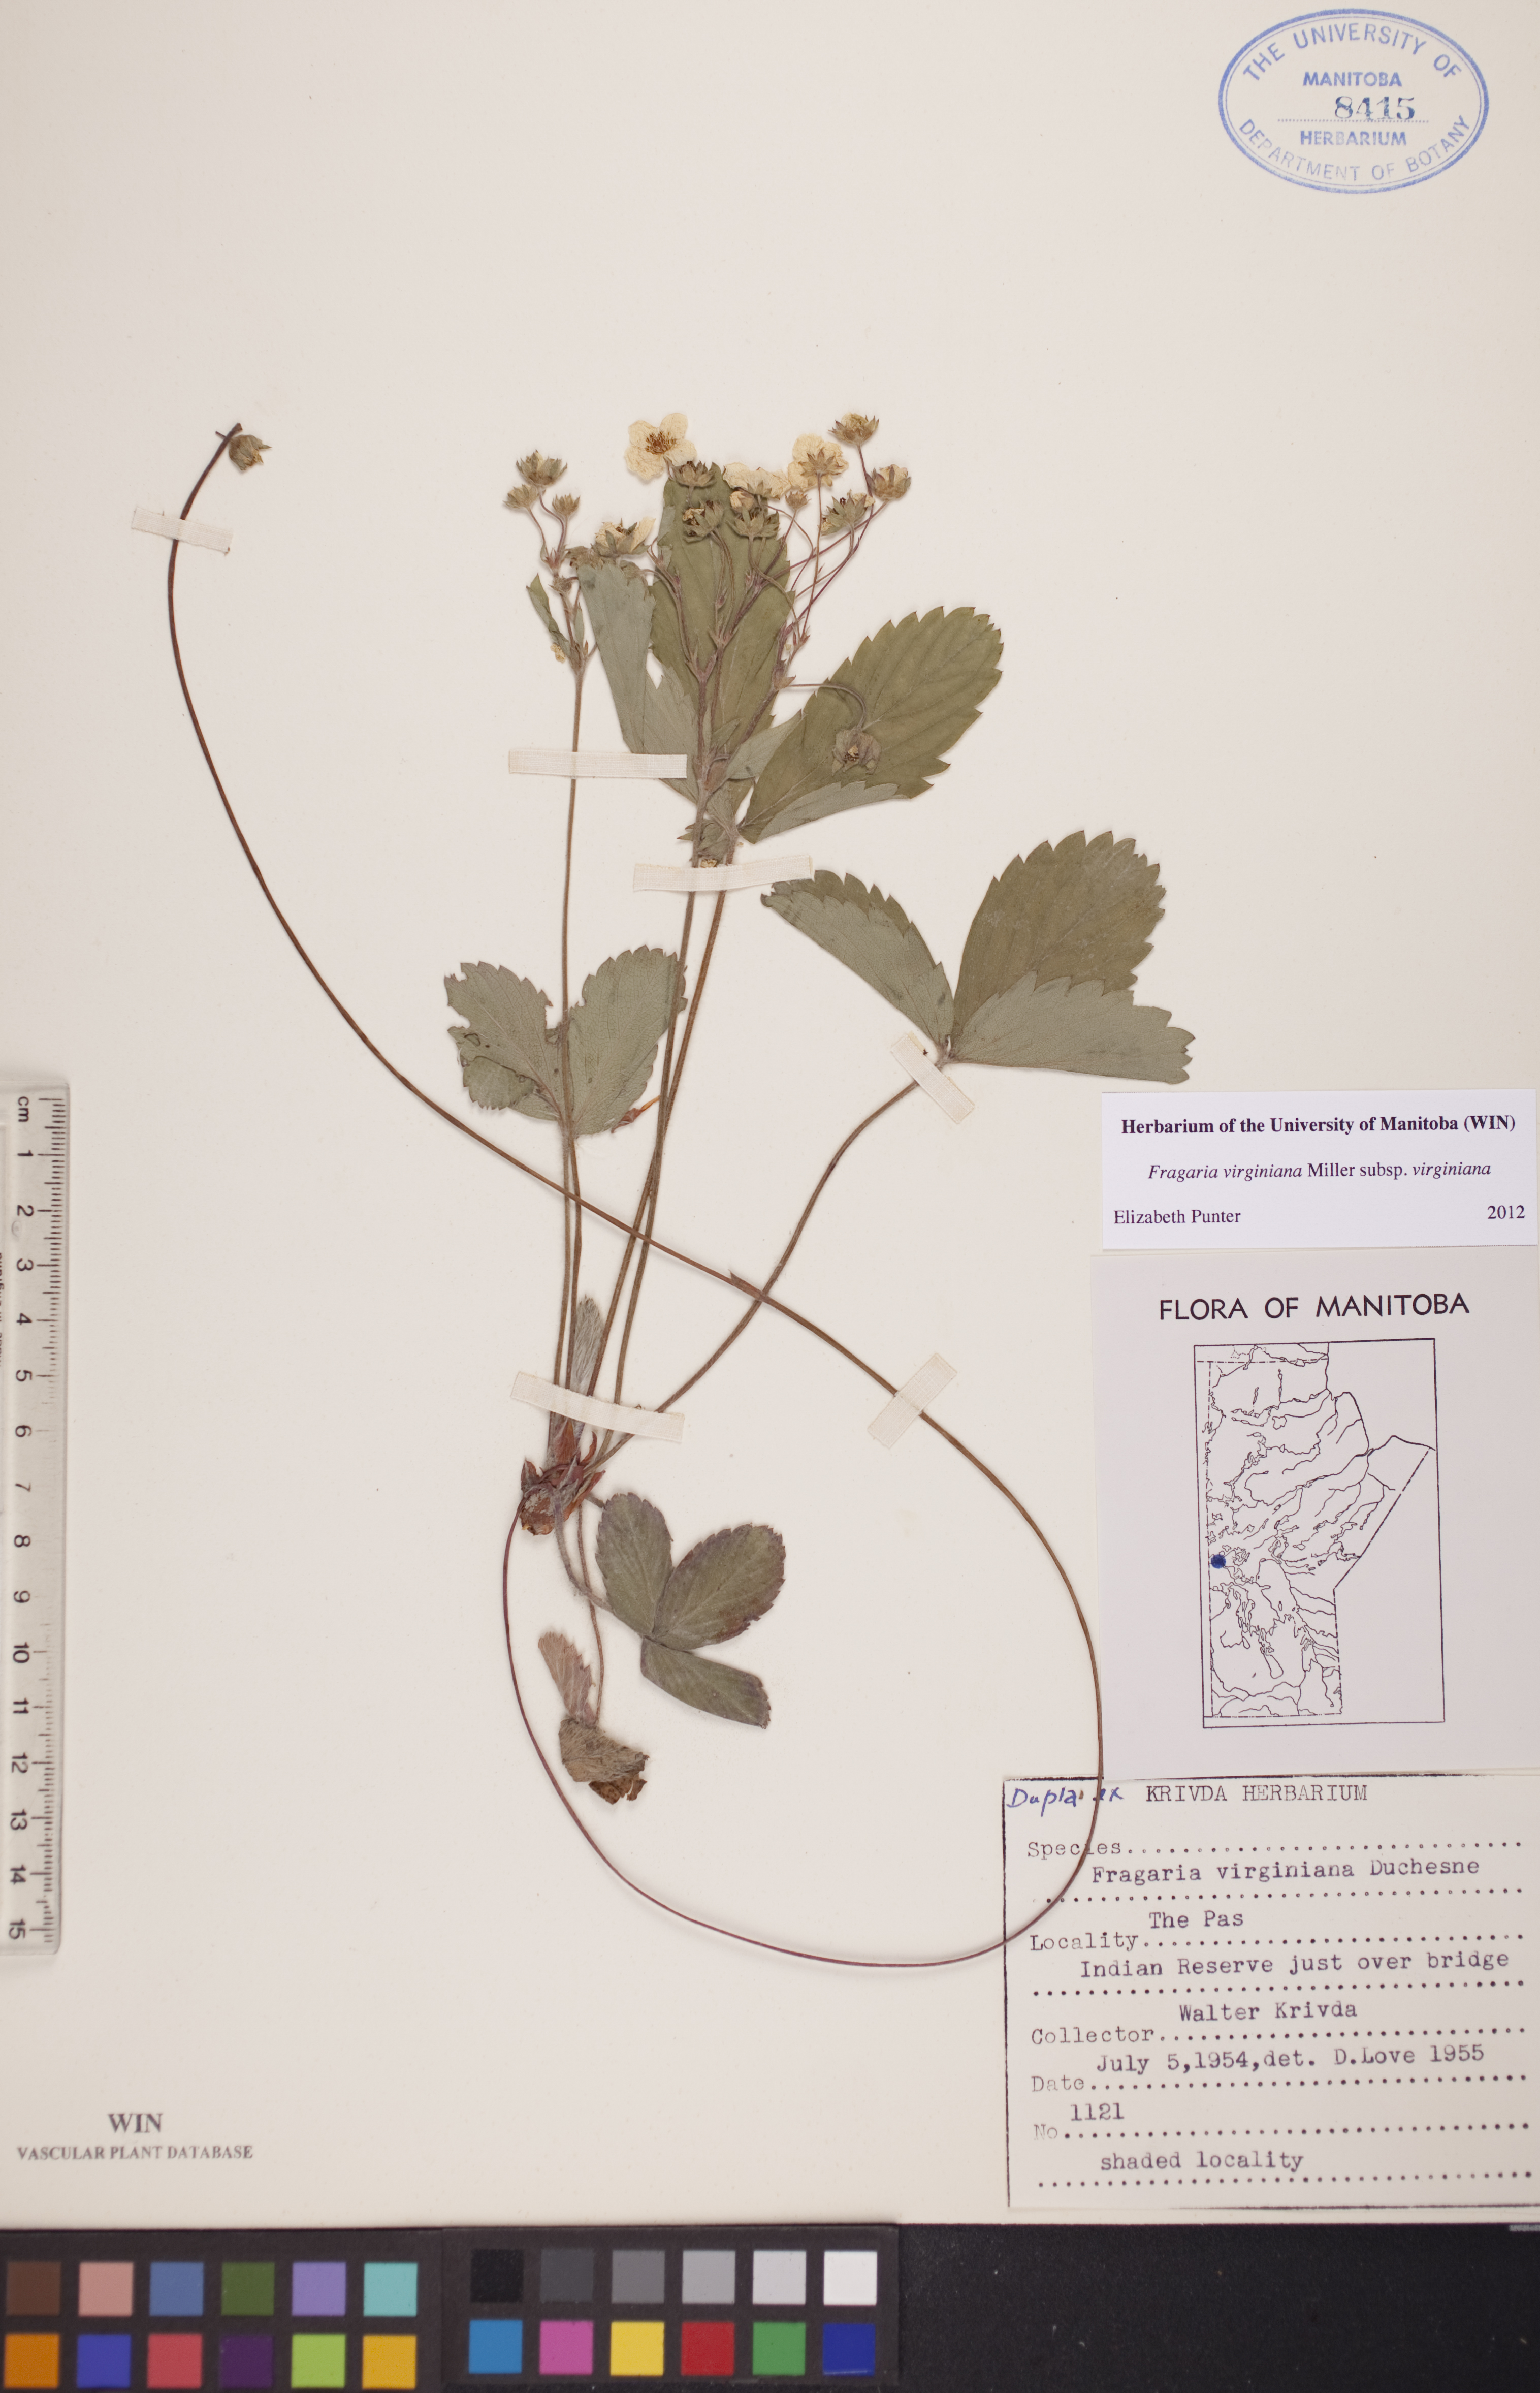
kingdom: Plantae
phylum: Tracheophyta
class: Magnoliopsida
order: Rosales
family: Rosaceae
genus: Fragaria
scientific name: Fragaria virginiana
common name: Thickleaved wild strawberry
